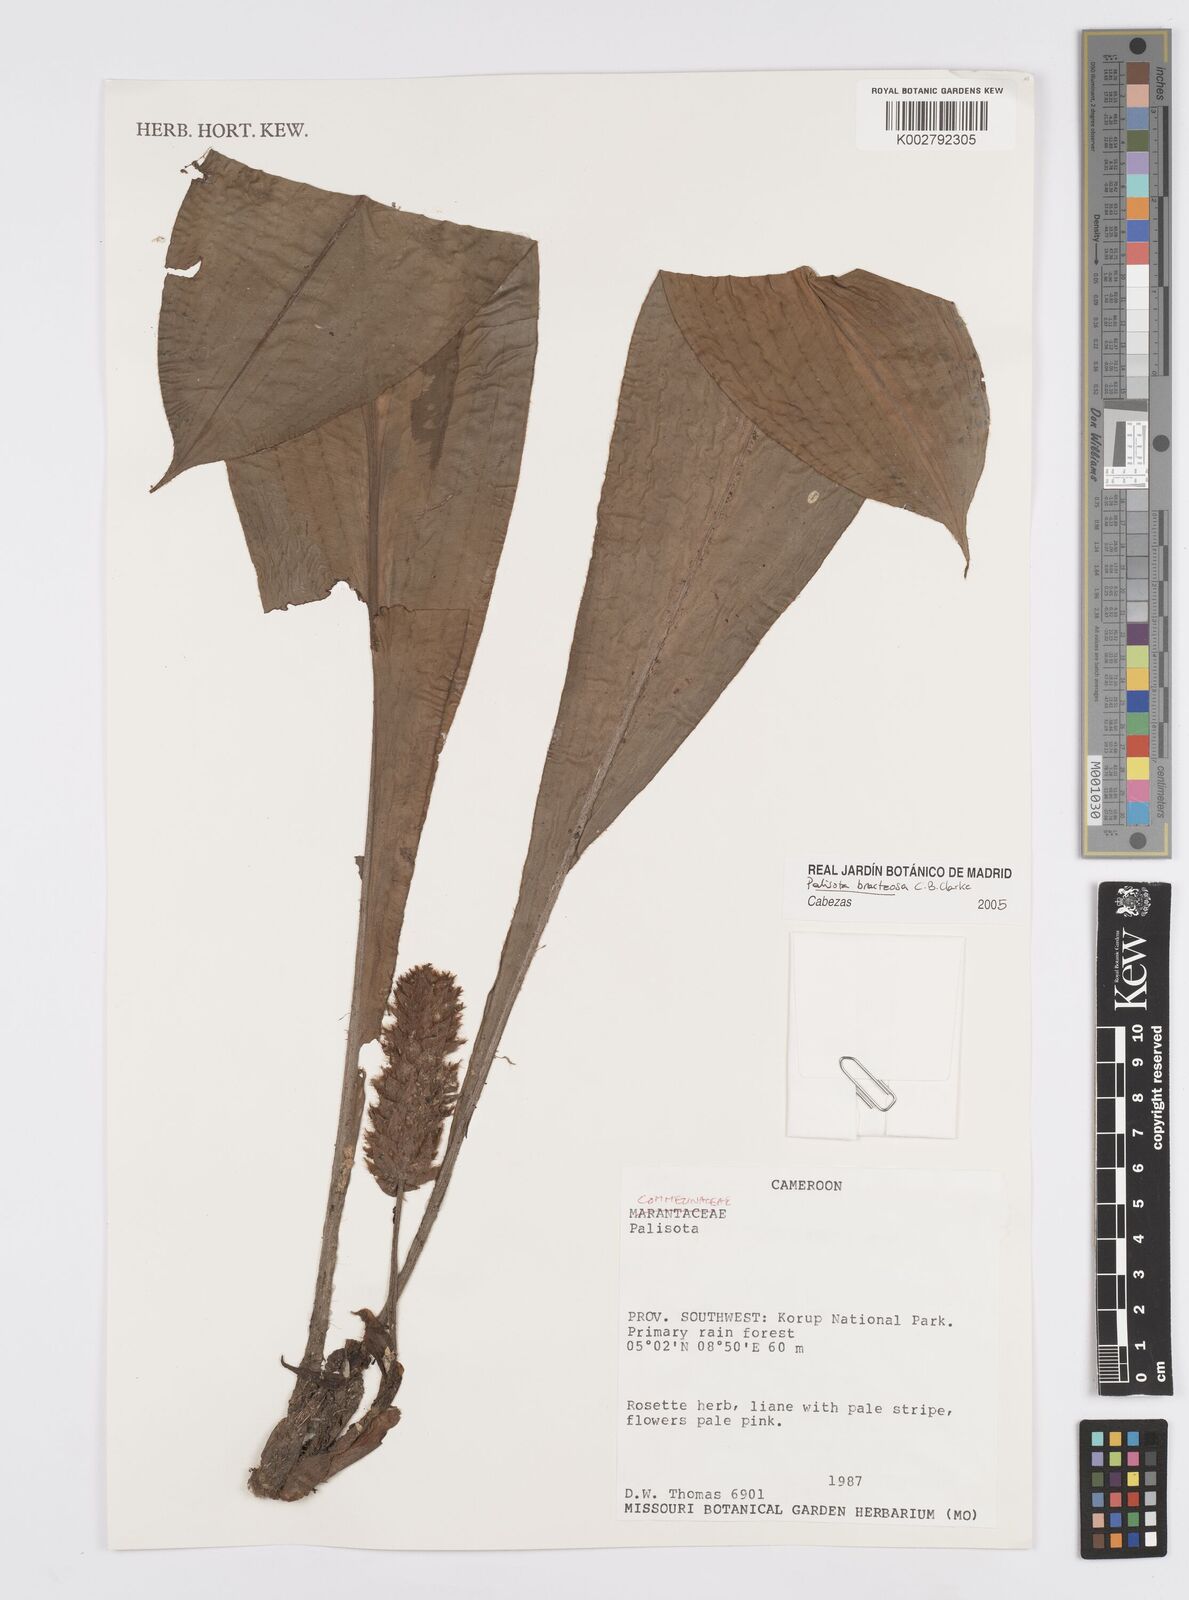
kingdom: Plantae
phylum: Tracheophyta
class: Liliopsida
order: Commelinales
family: Commelinaceae
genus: Palisota
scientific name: Palisota bracteosa
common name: Palisota
